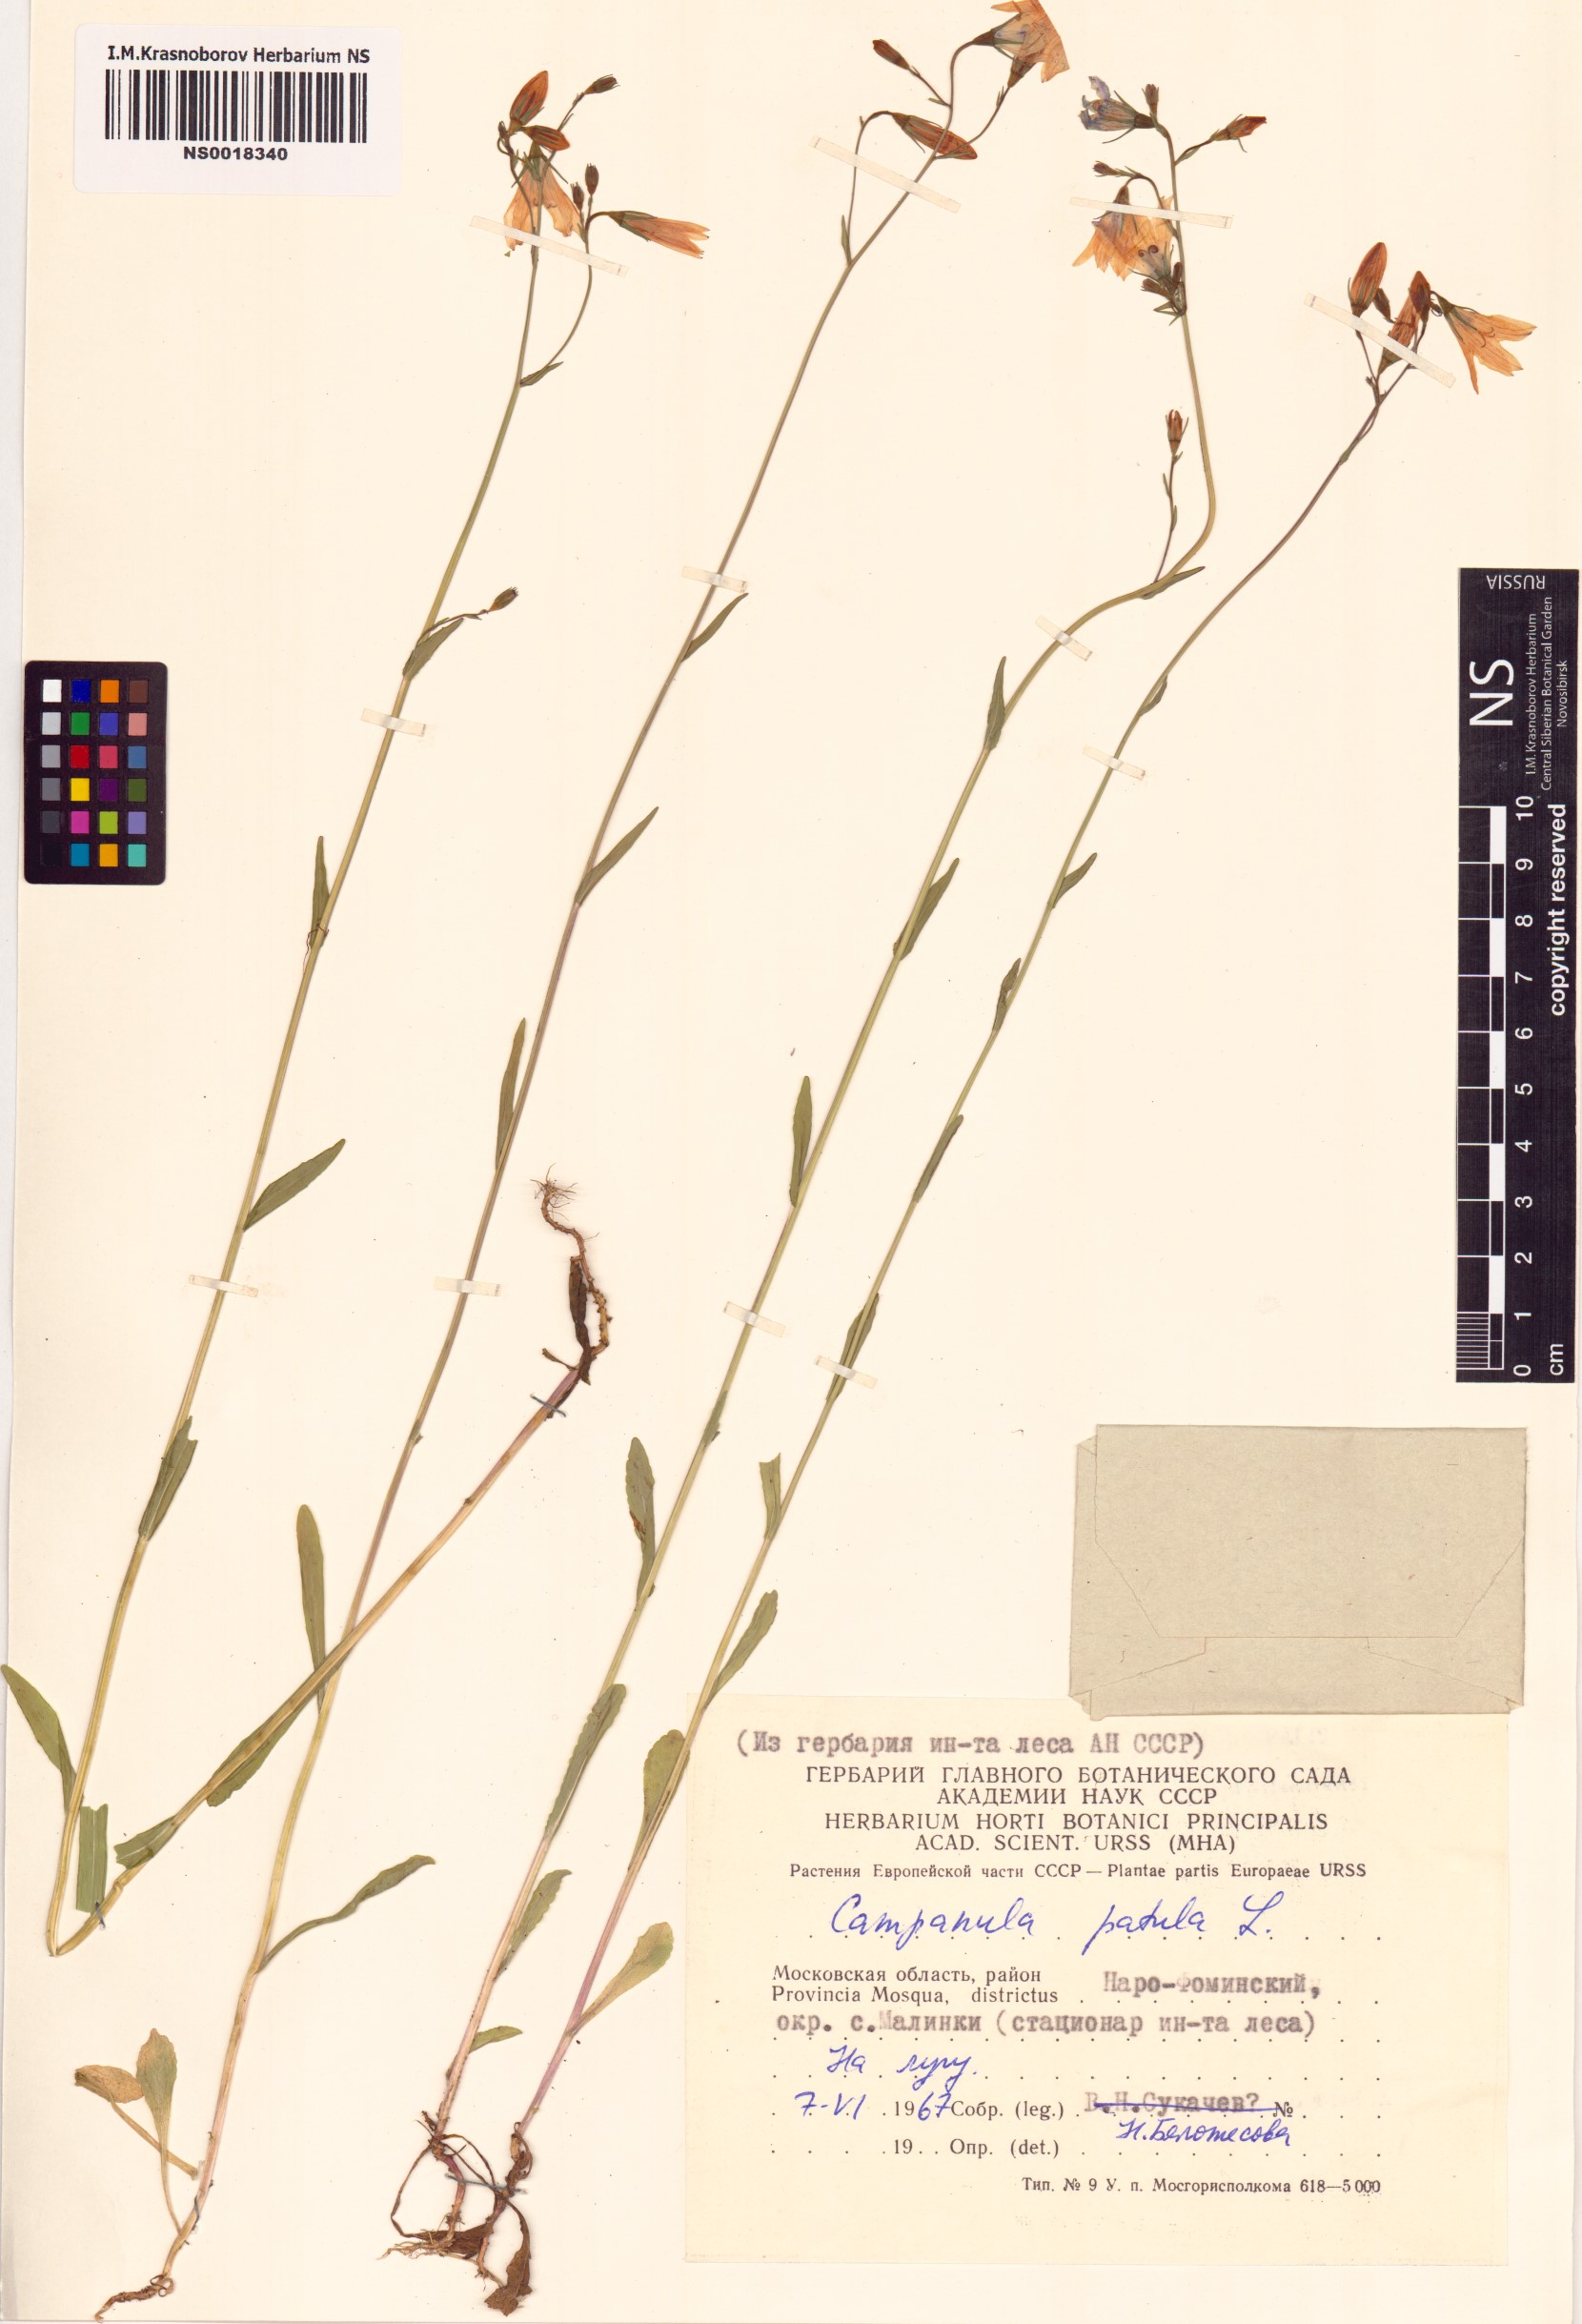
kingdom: Plantae
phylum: Tracheophyta
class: Magnoliopsida
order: Asterales
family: Campanulaceae
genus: Campanula
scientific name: Campanula patula
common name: Spreading bellflower
